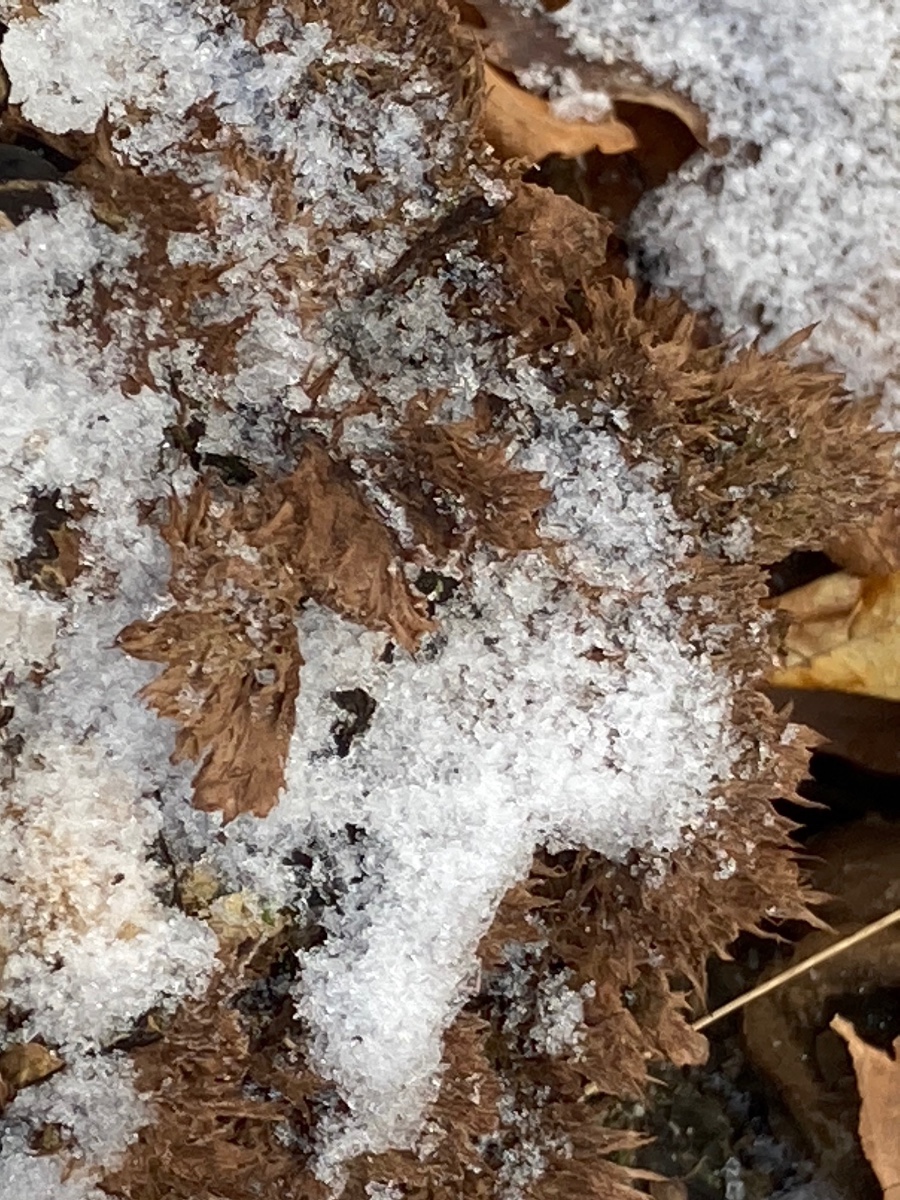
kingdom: Fungi
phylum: Basidiomycota
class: Agaricomycetes
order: Thelephorales
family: Thelephoraceae
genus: Thelephora
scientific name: Thelephora terrestris
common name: fliget frynsesvamp
